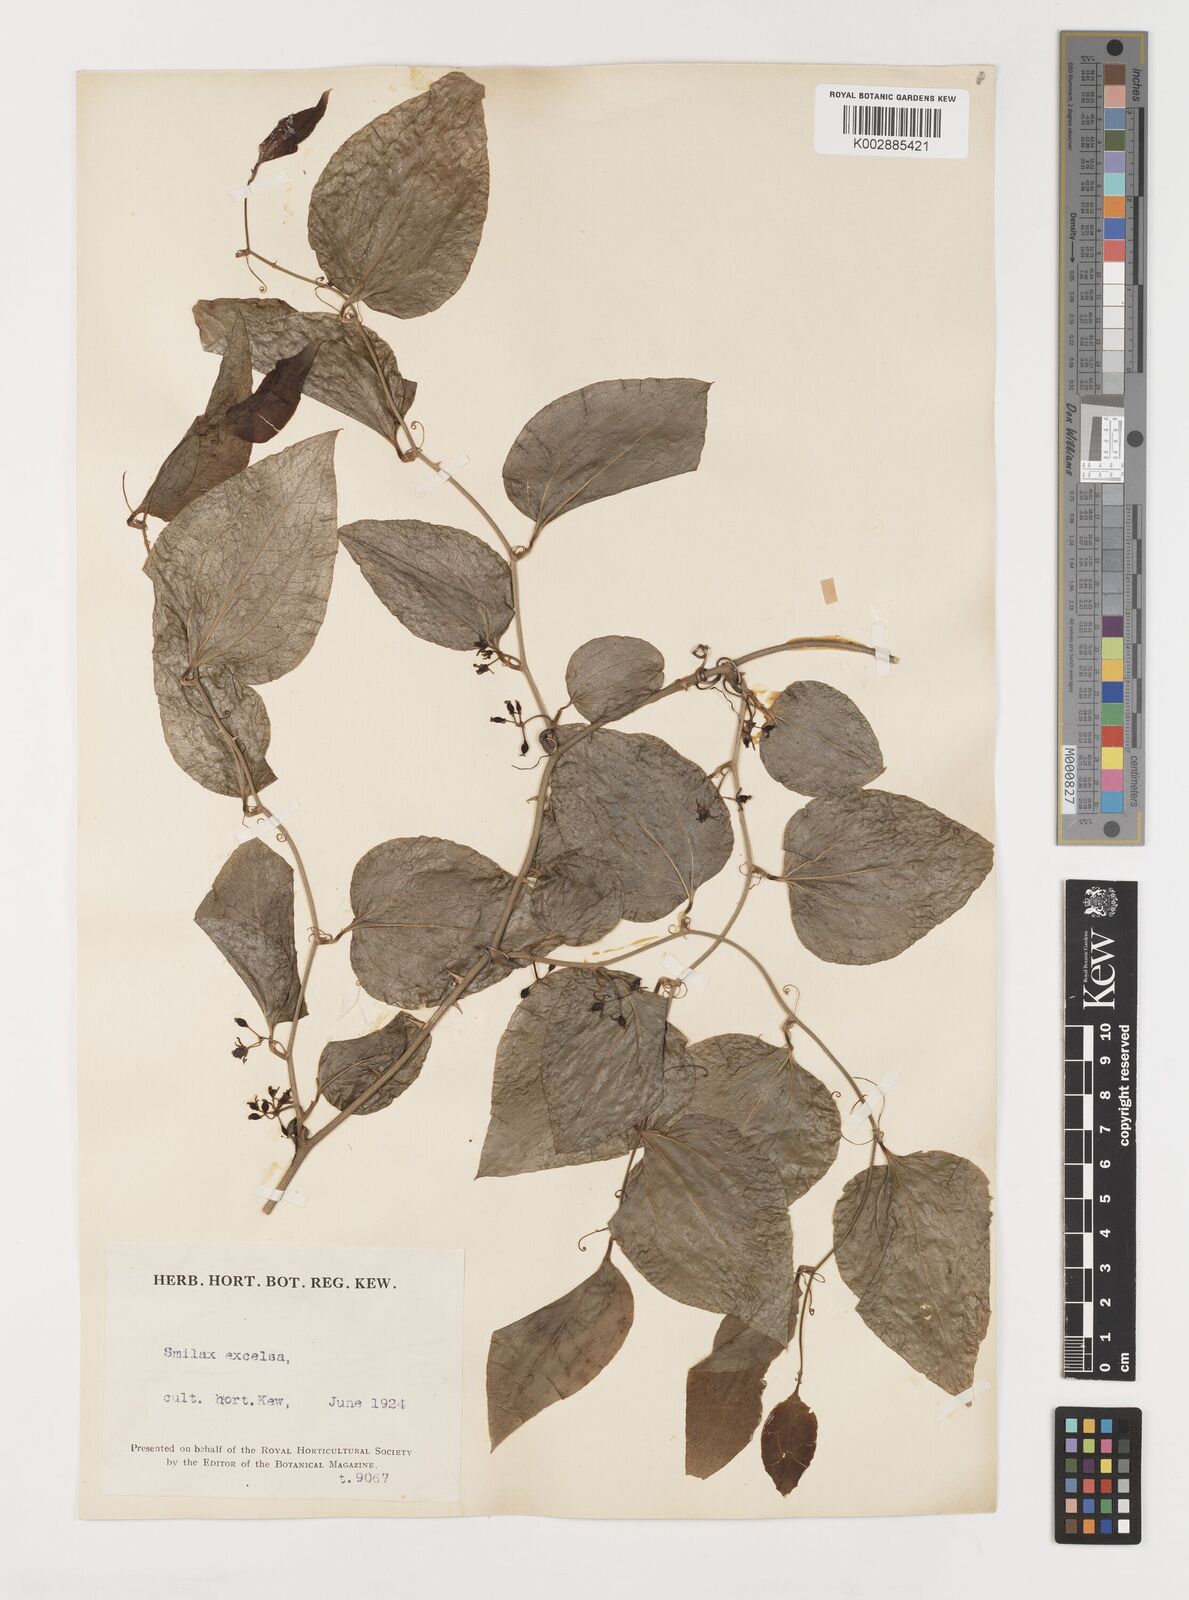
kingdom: Plantae
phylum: Tracheophyta
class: Liliopsida
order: Liliales
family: Smilacaceae
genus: Smilax
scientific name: Smilax excelsa
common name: Larger smilax
